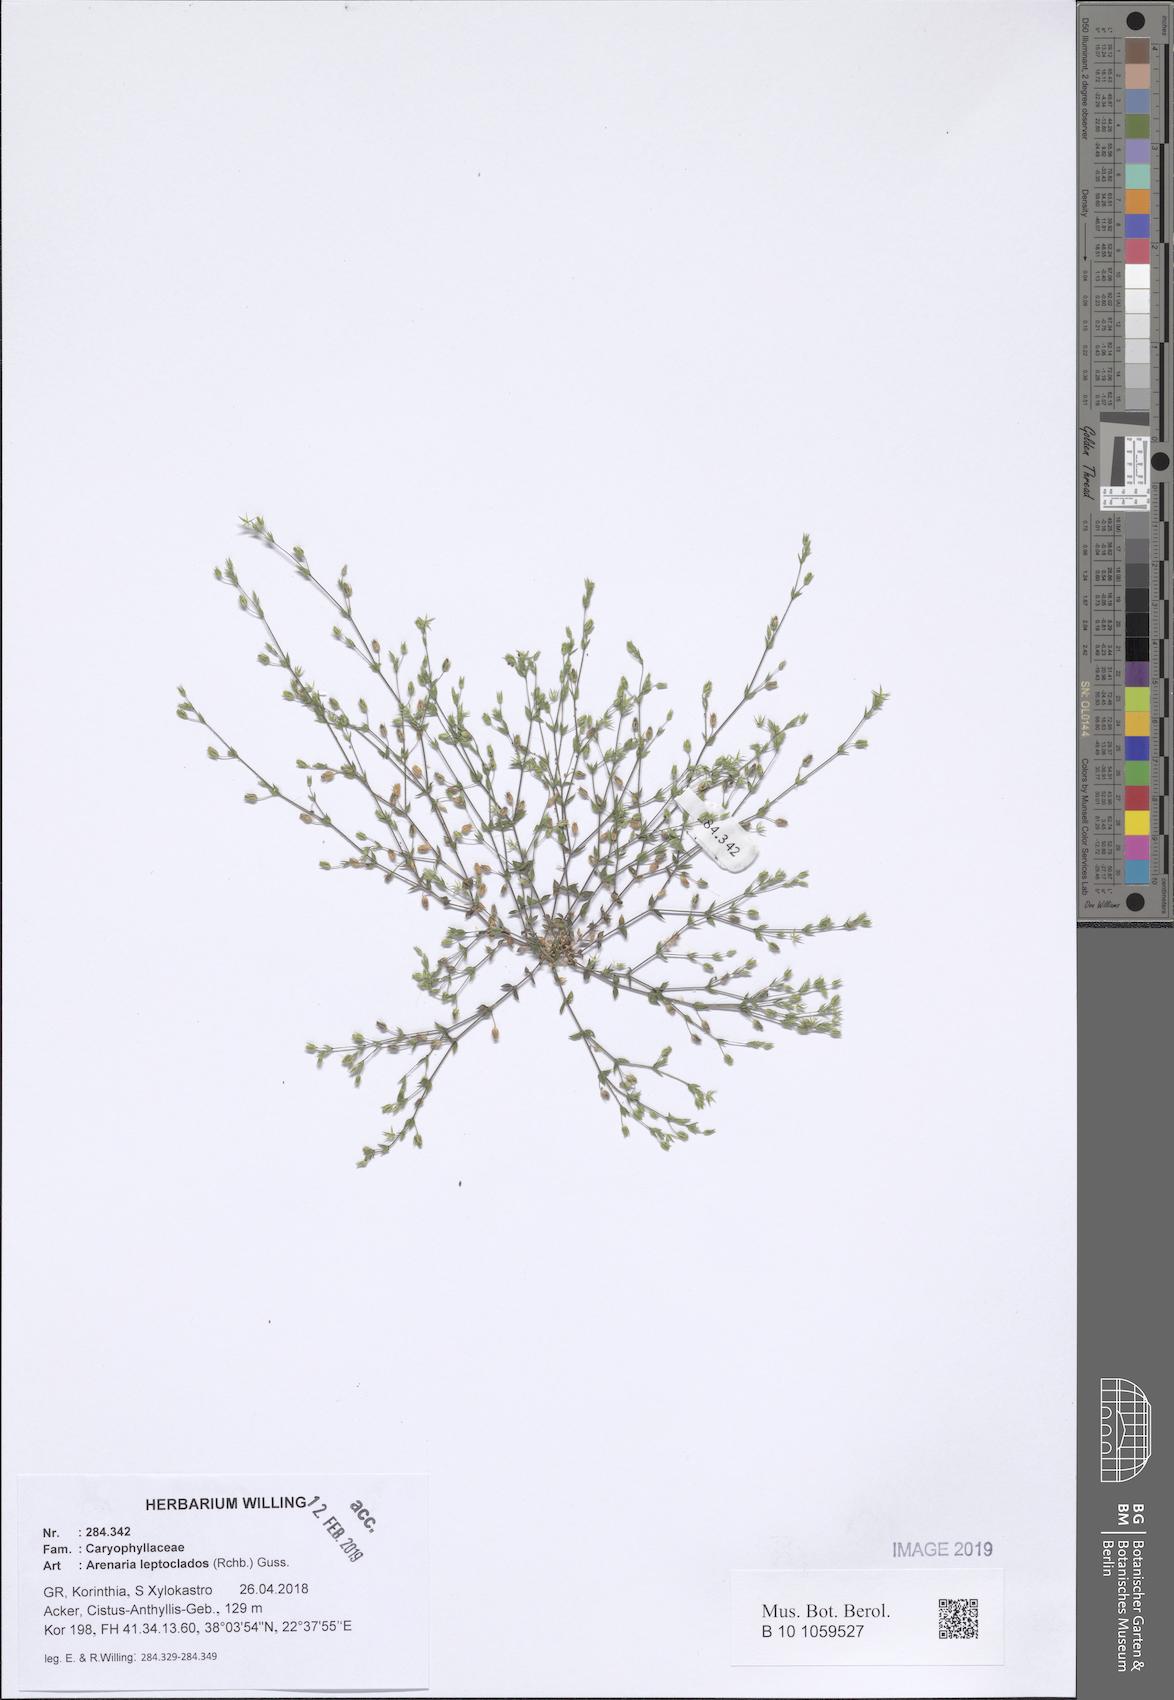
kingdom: Plantae
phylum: Tracheophyta
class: Magnoliopsida
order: Caryophyllales
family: Caryophyllaceae
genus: Arenaria
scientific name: Arenaria leptoclados
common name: Thyme-leaved sandwort
